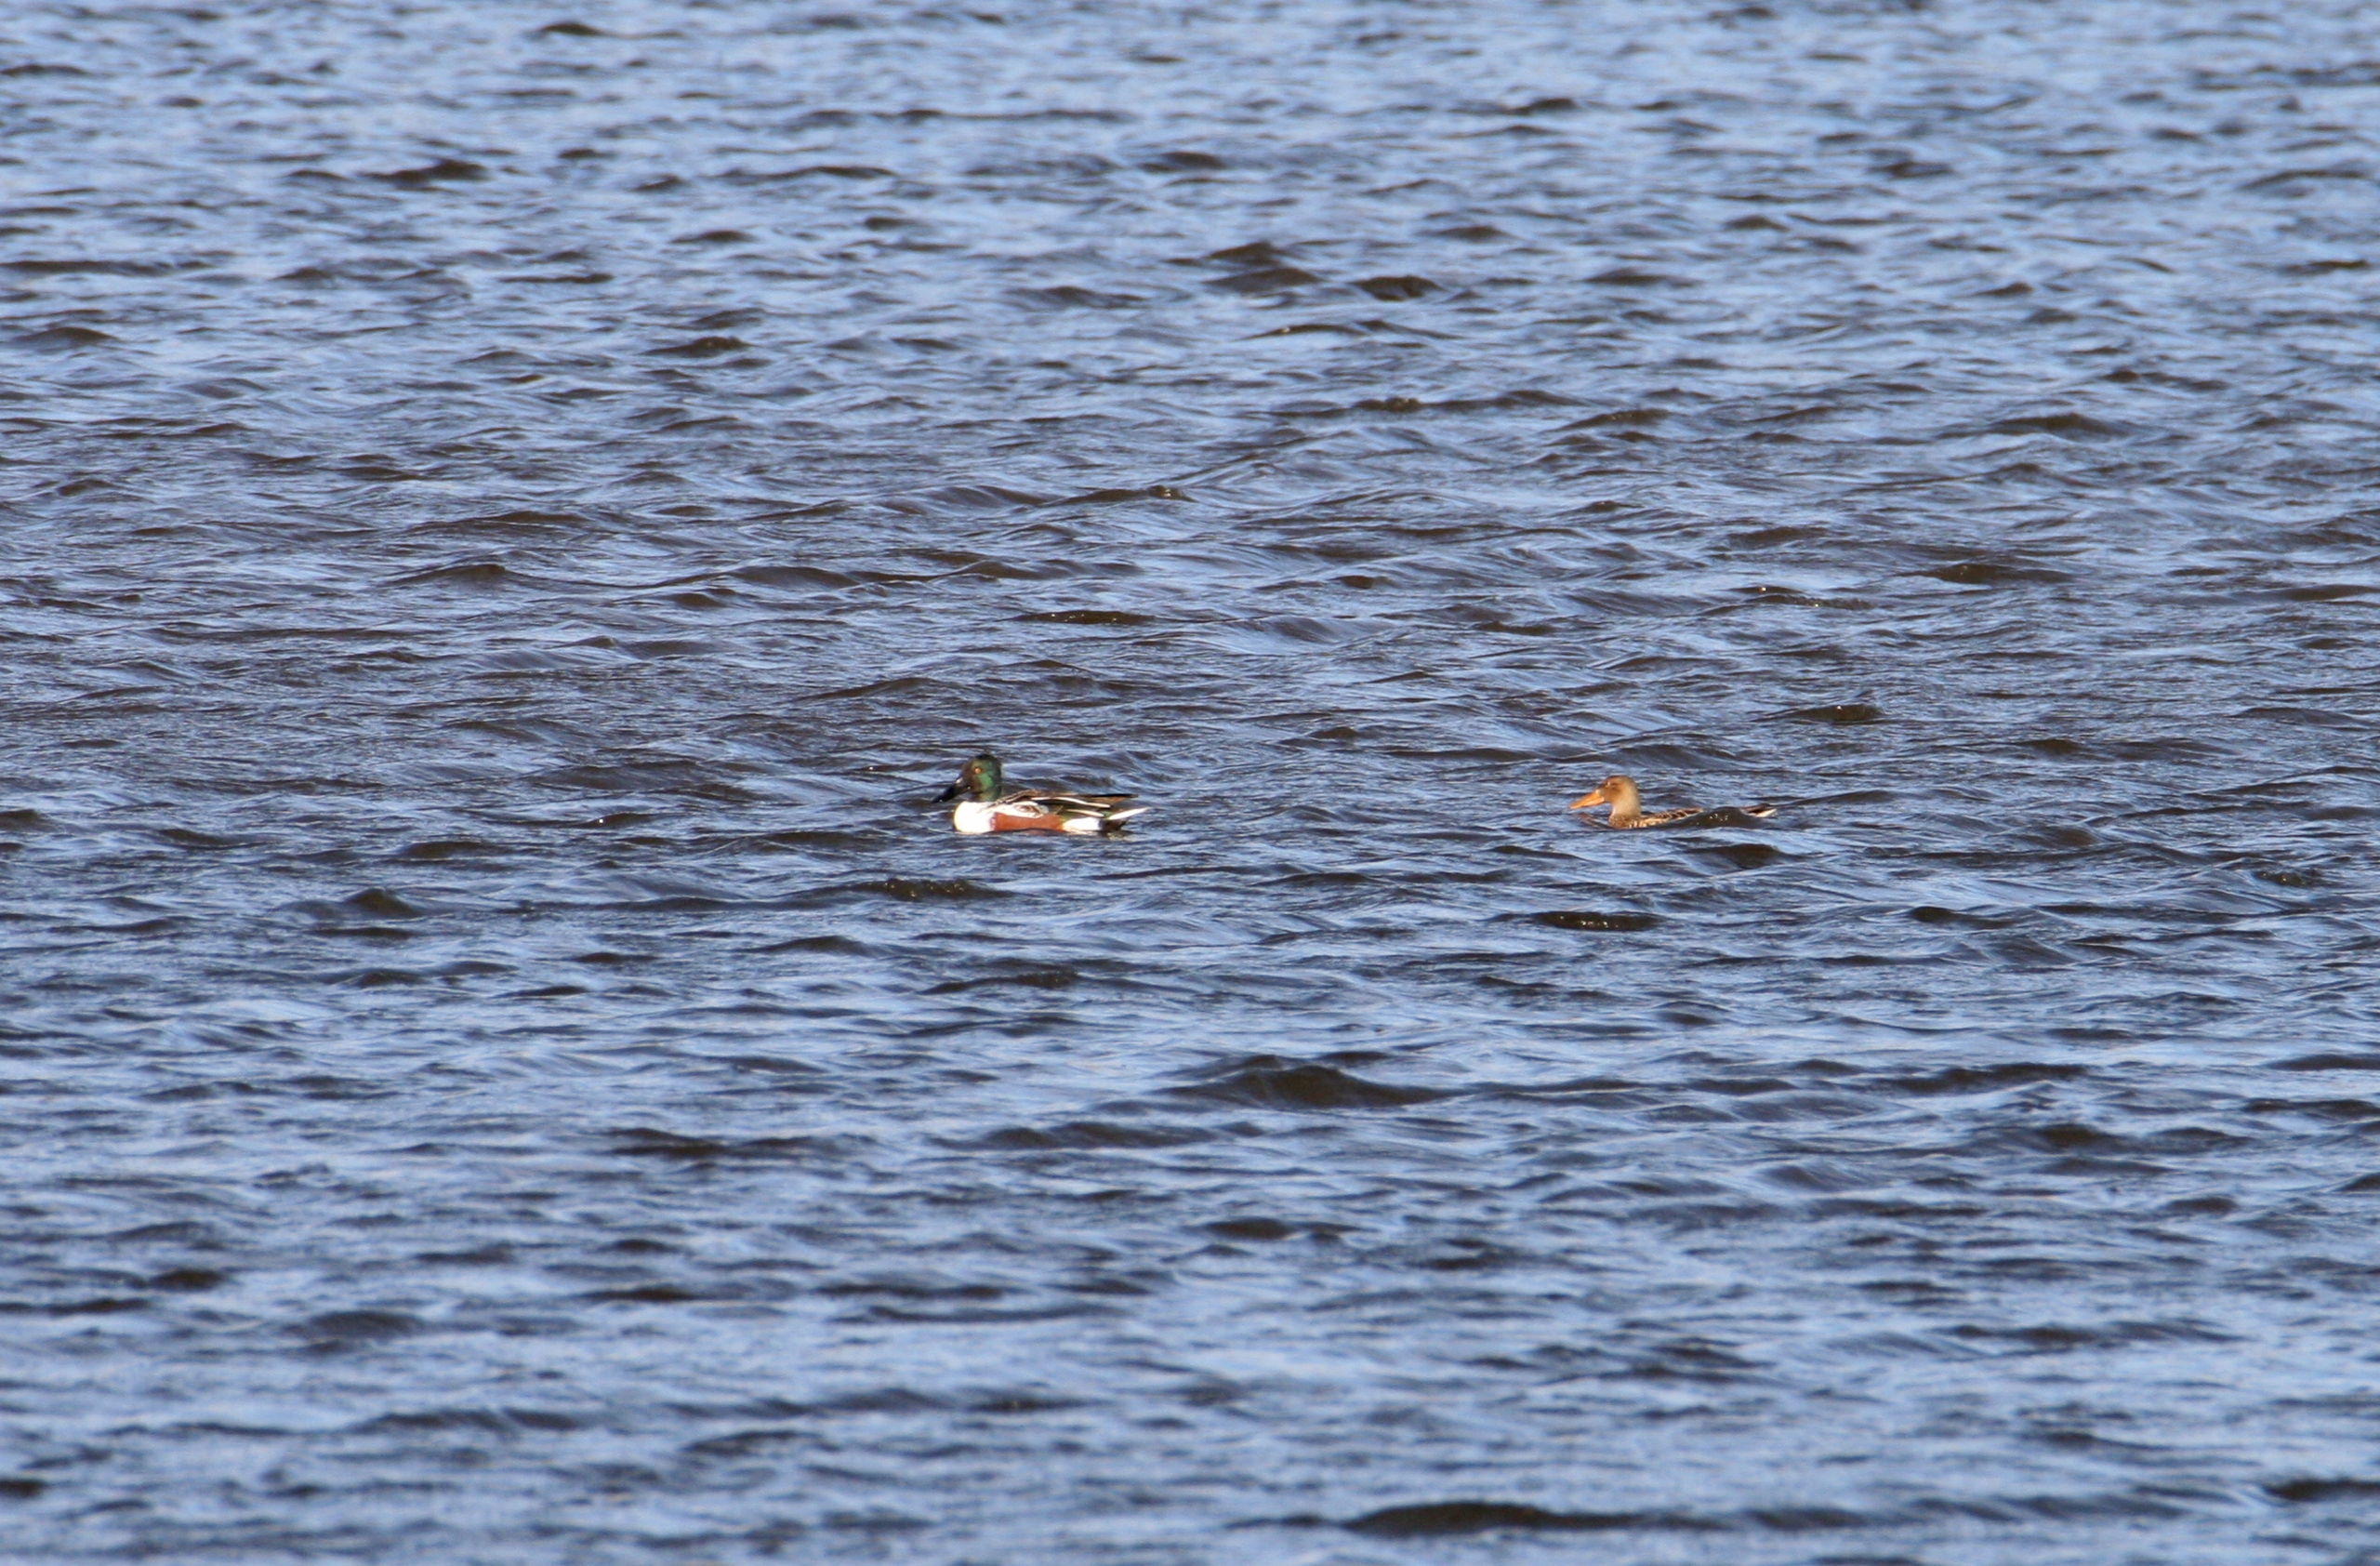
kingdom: Animalia
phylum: Chordata
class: Aves
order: Anseriformes
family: Anatidae
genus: Spatula
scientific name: Spatula clypeata
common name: Skeand
